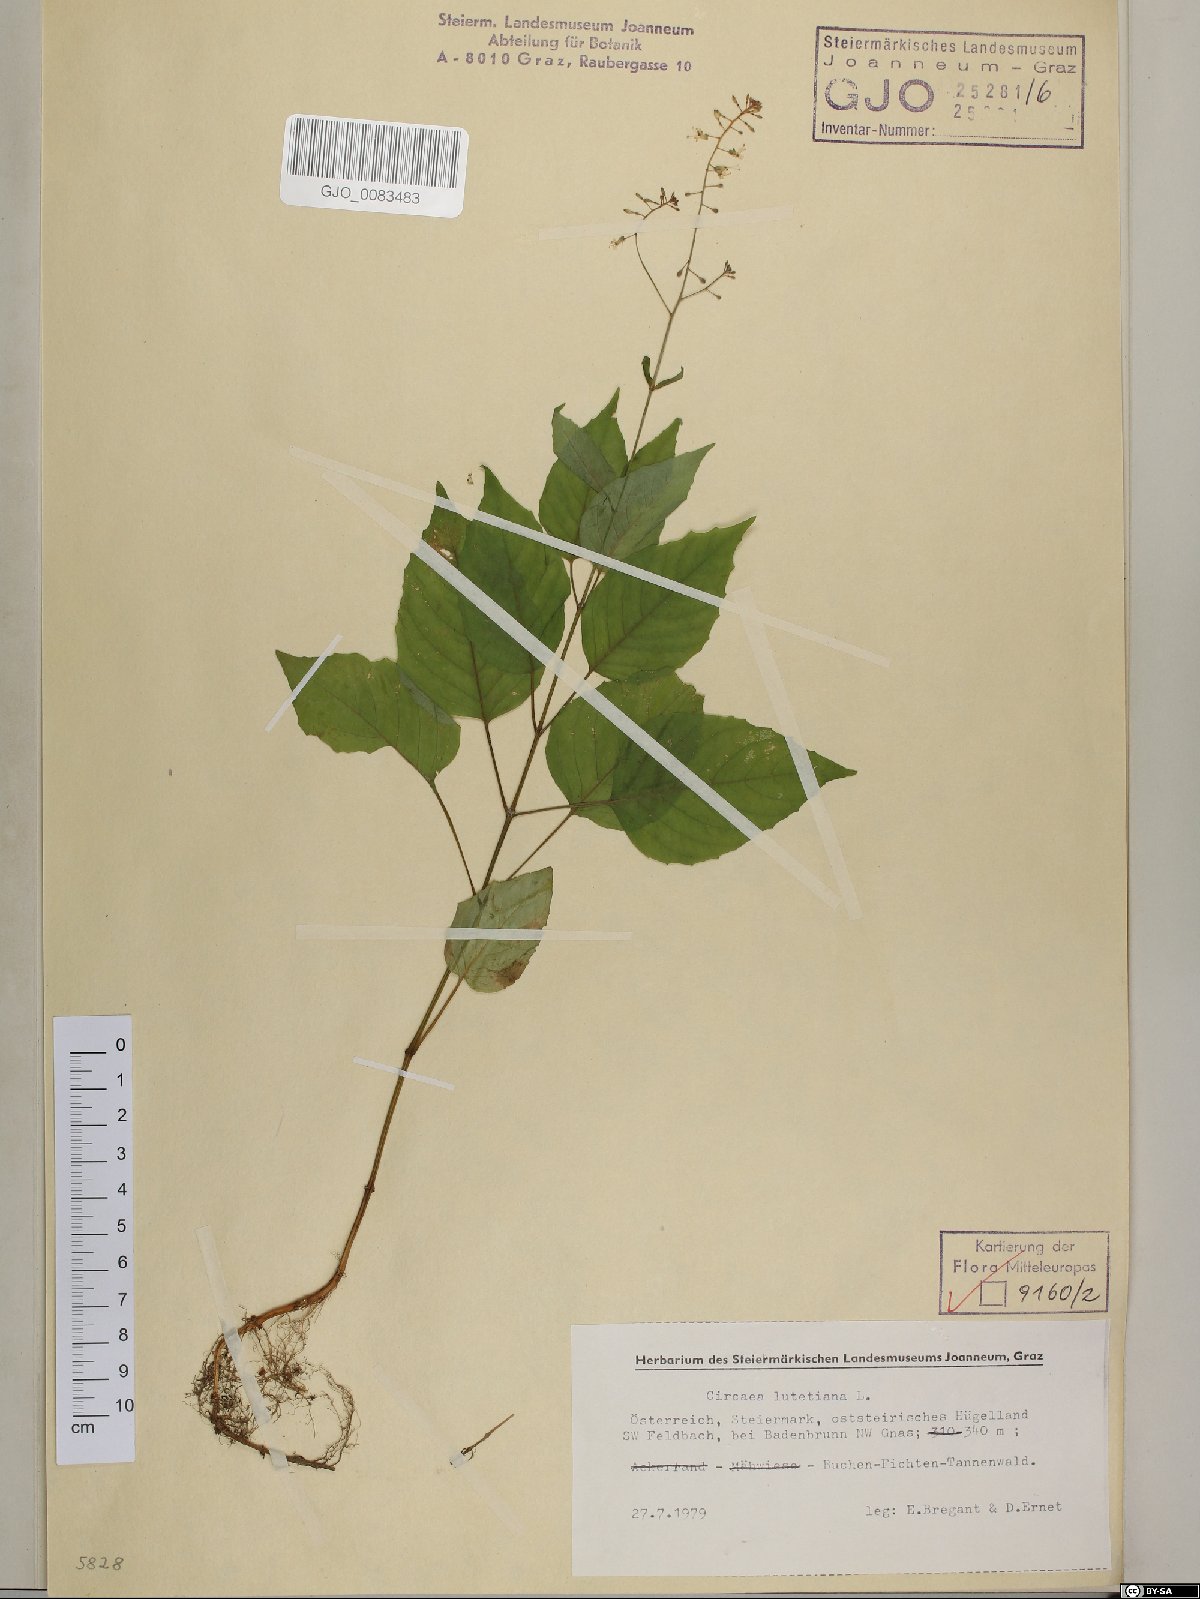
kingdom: Plantae
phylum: Tracheophyta
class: Magnoliopsida
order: Myrtales
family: Onagraceae
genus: Circaea
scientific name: Circaea lutetiana
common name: Enchanter's-nightshade
